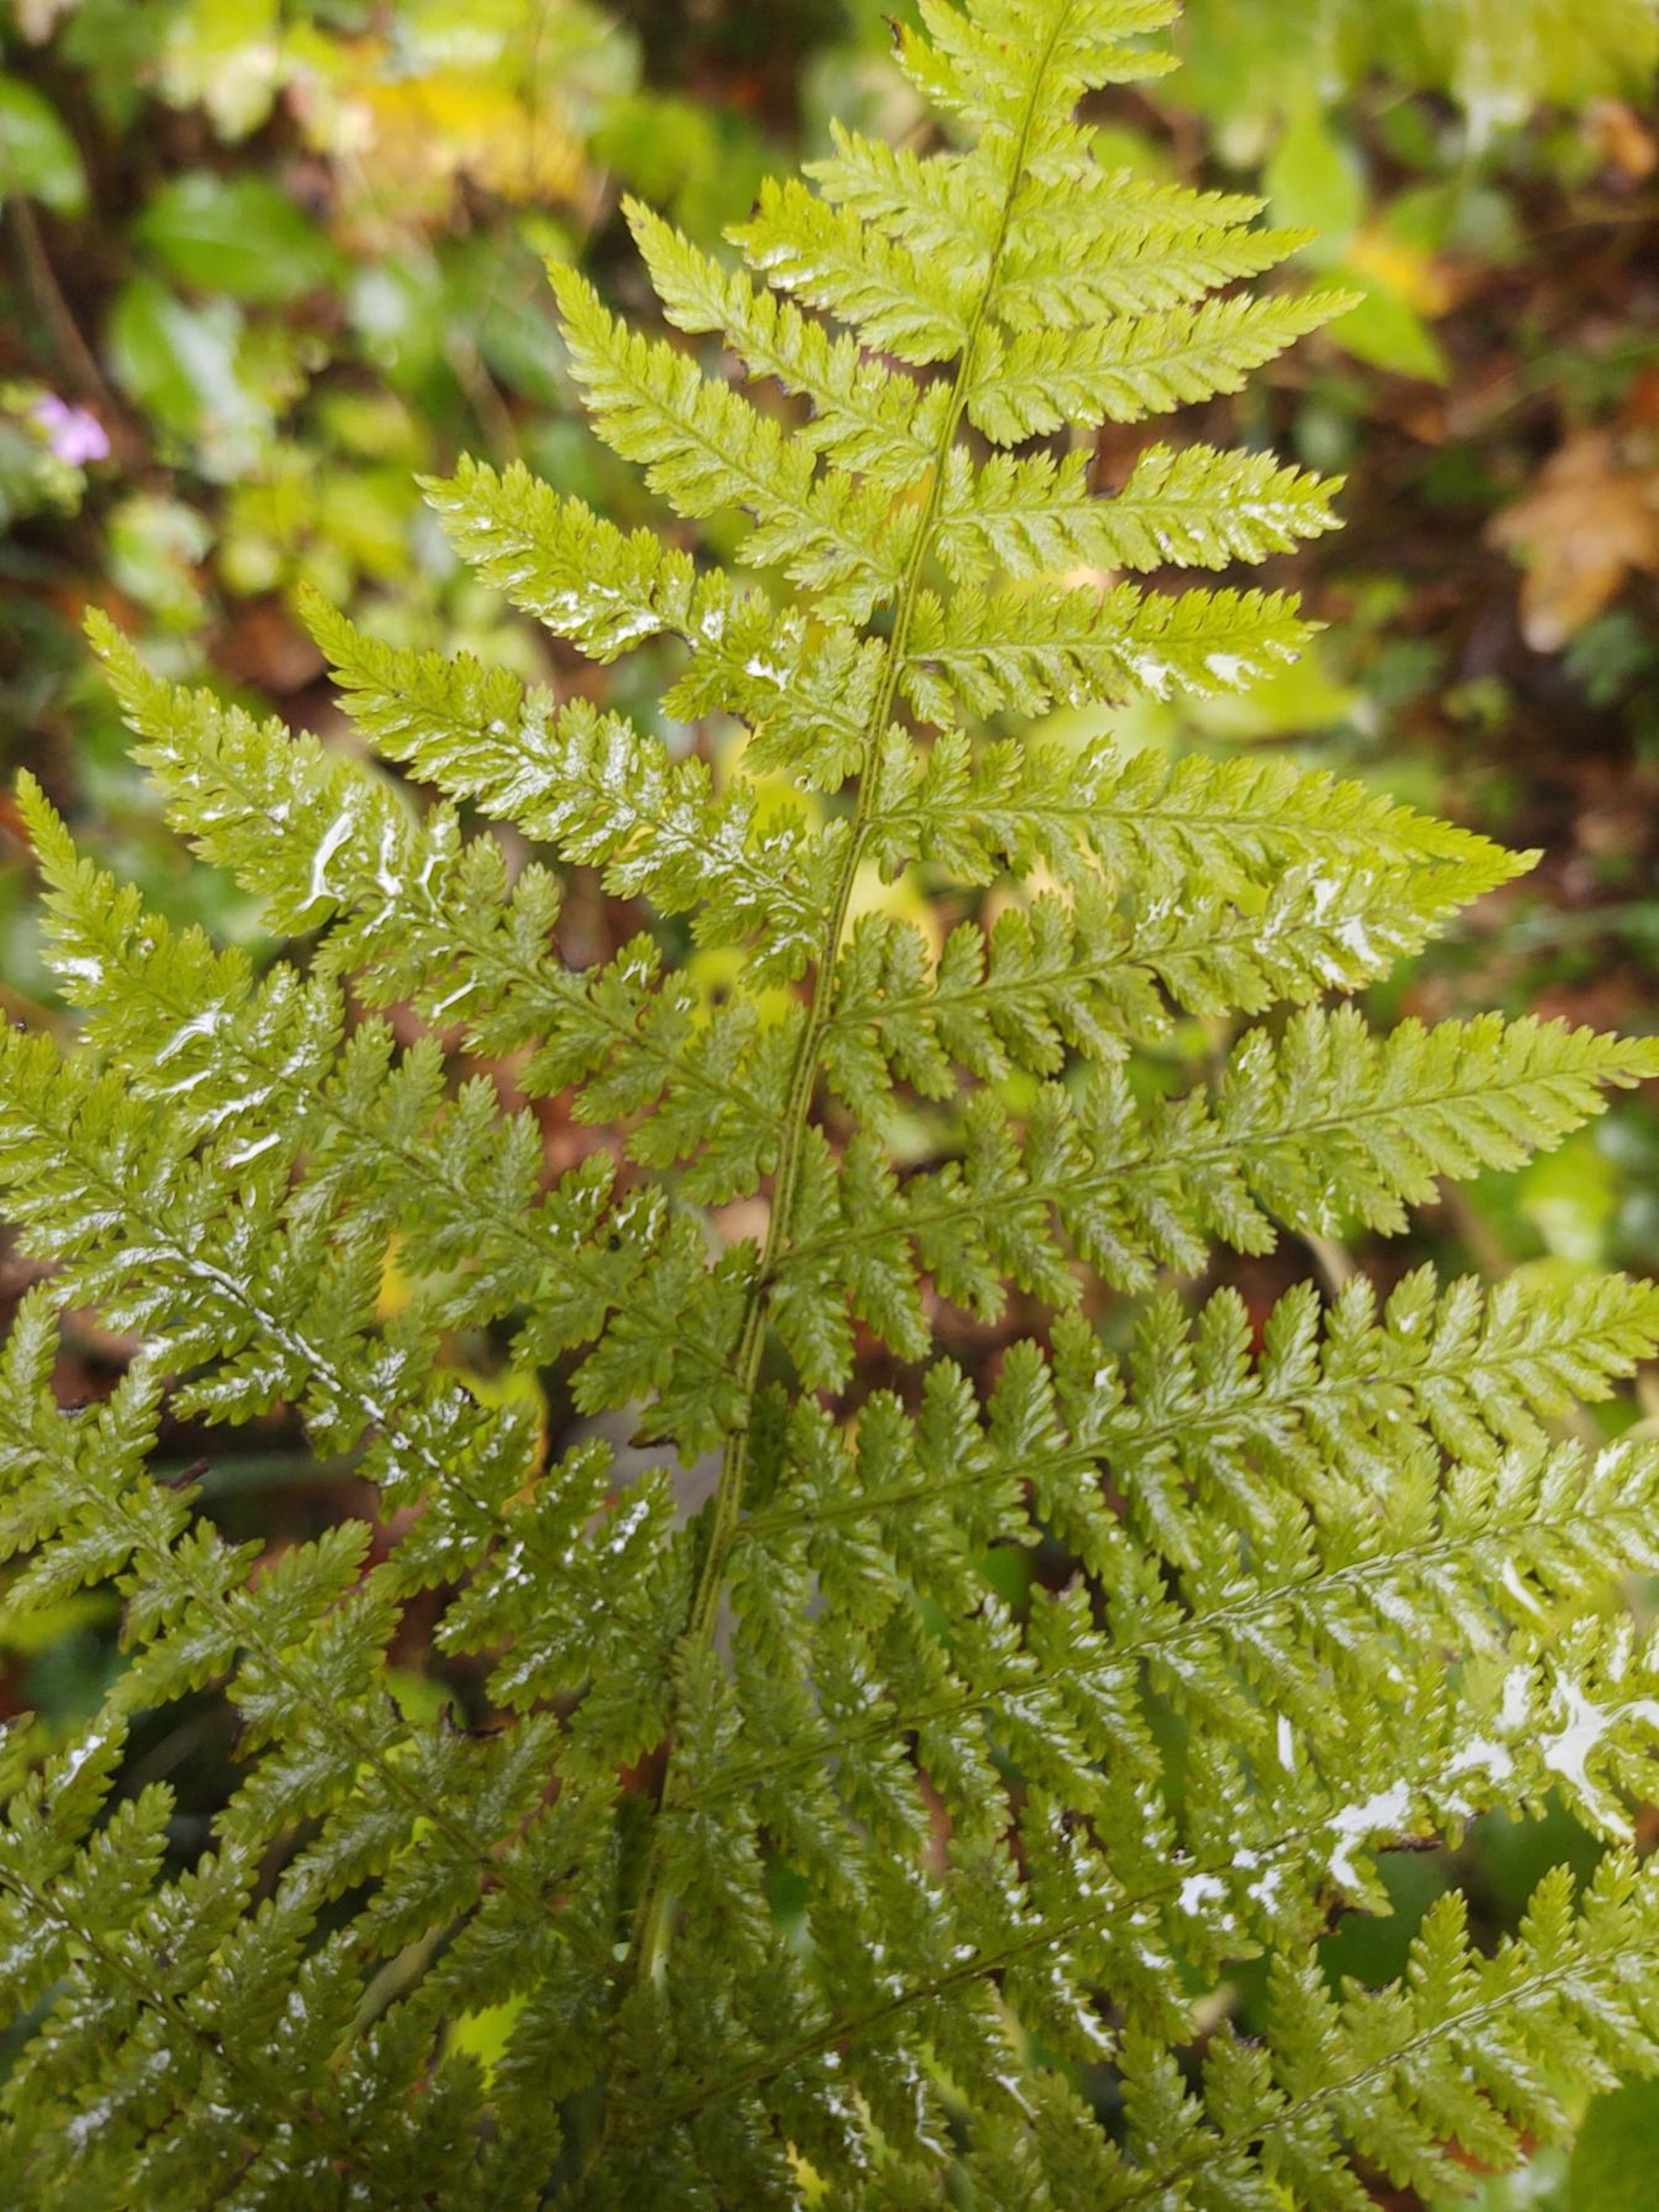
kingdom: Plantae
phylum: Tracheophyta
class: Polypodiopsida
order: Polypodiales
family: Athyriaceae
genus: Athyrium
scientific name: Athyrium filix-femina
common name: Fjerbregne
